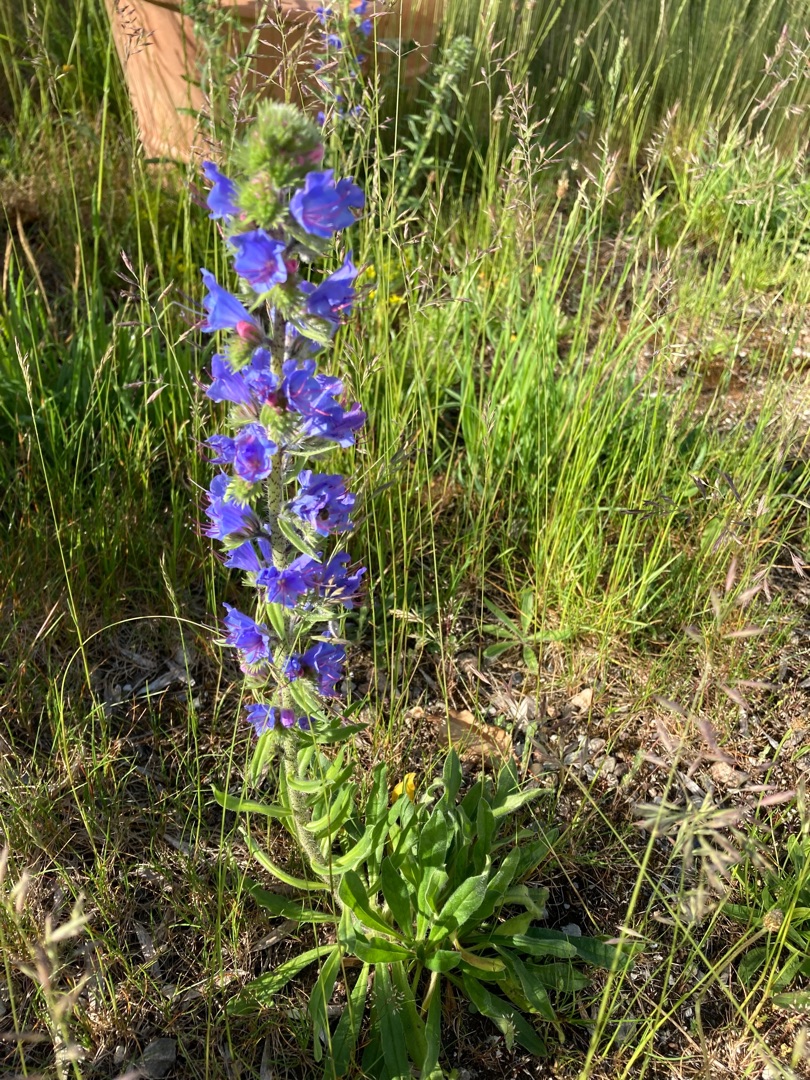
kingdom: Plantae
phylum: Tracheophyta
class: Magnoliopsida
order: Boraginales
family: Boraginaceae
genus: Echium
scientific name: Echium vulgare
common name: Slangehoved
